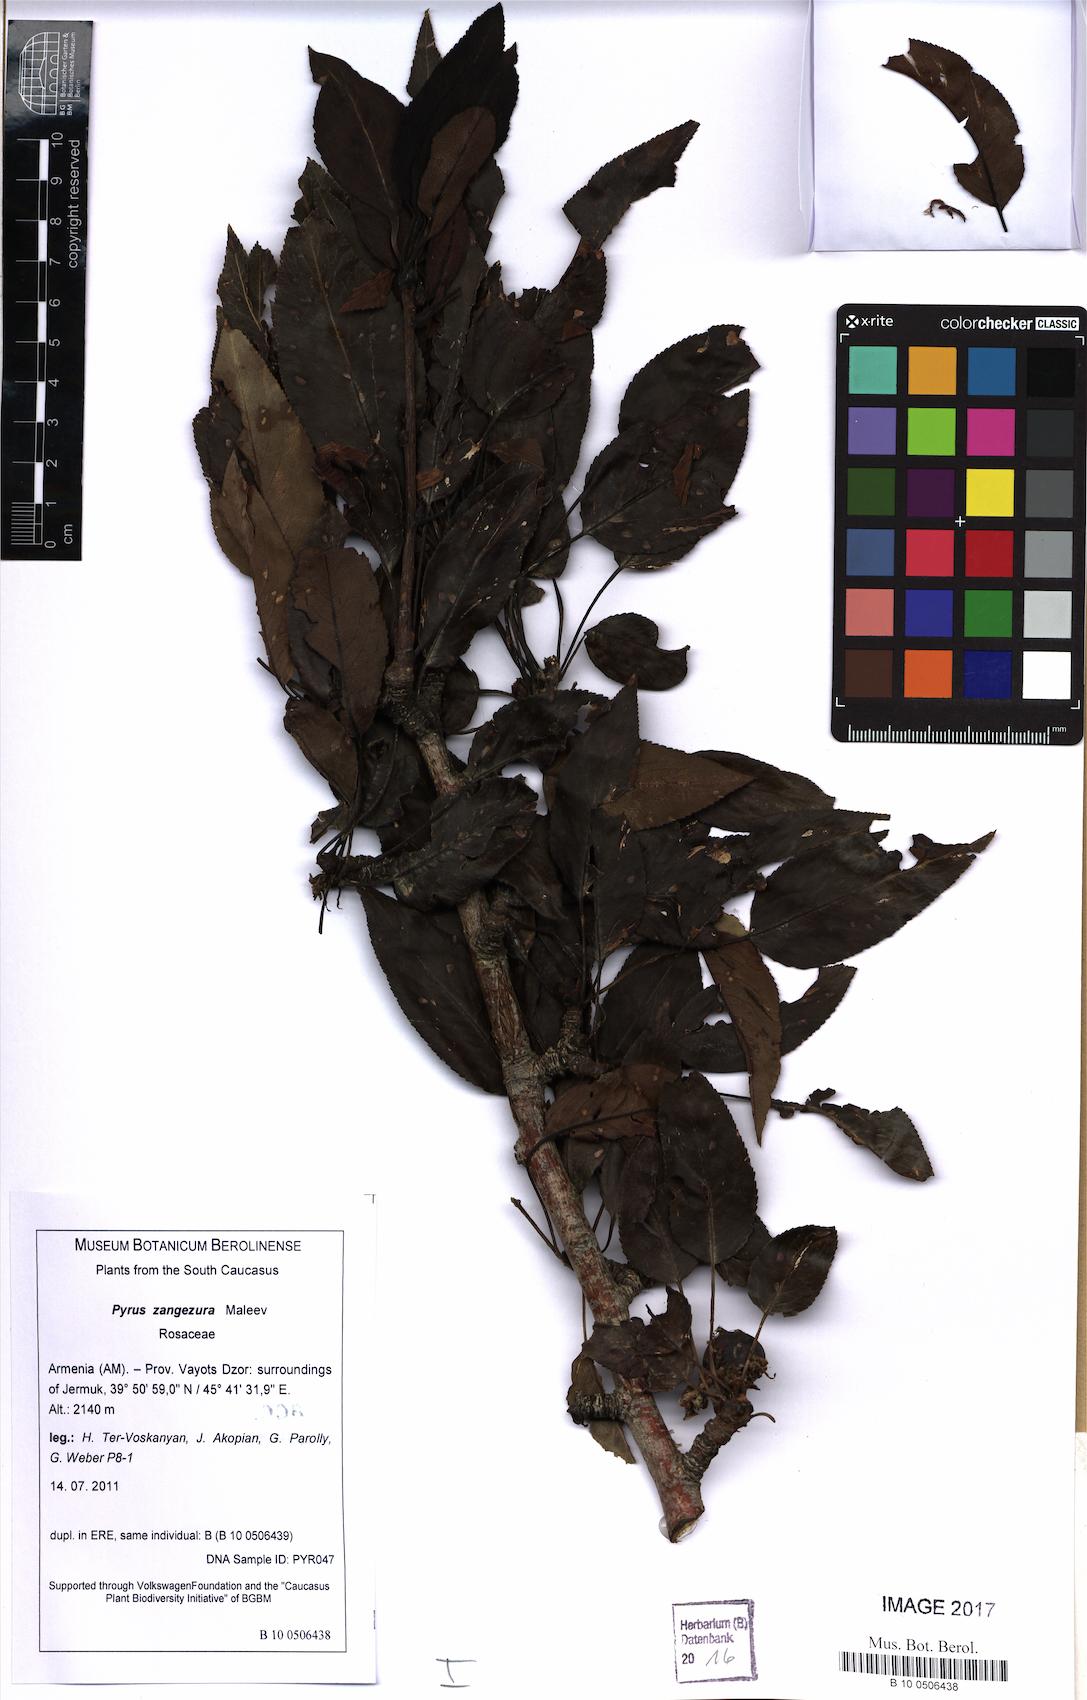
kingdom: Plantae
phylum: Tracheophyta
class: Magnoliopsida
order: Rosales
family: Rosaceae
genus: Pyrus
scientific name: Pyrus zangezura
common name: Zangezurian pear
